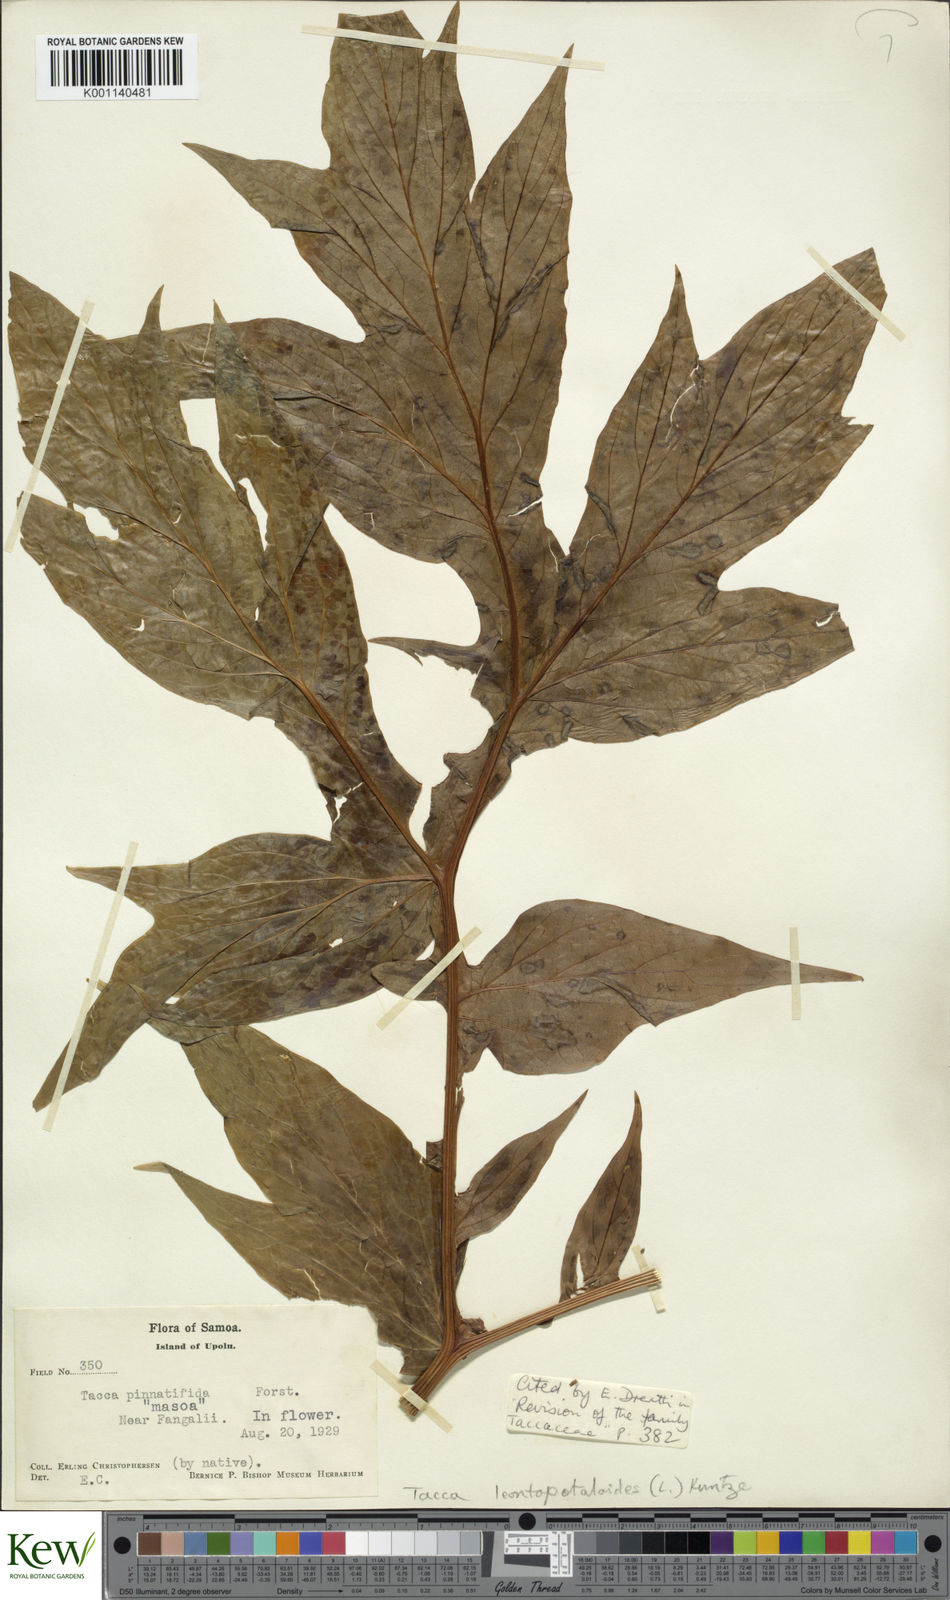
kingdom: Plantae
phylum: Tracheophyta
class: Liliopsida
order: Dioscoreales
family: Dioscoreaceae
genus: Tacca
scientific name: Tacca leontopetaloides
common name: Arrowroot
